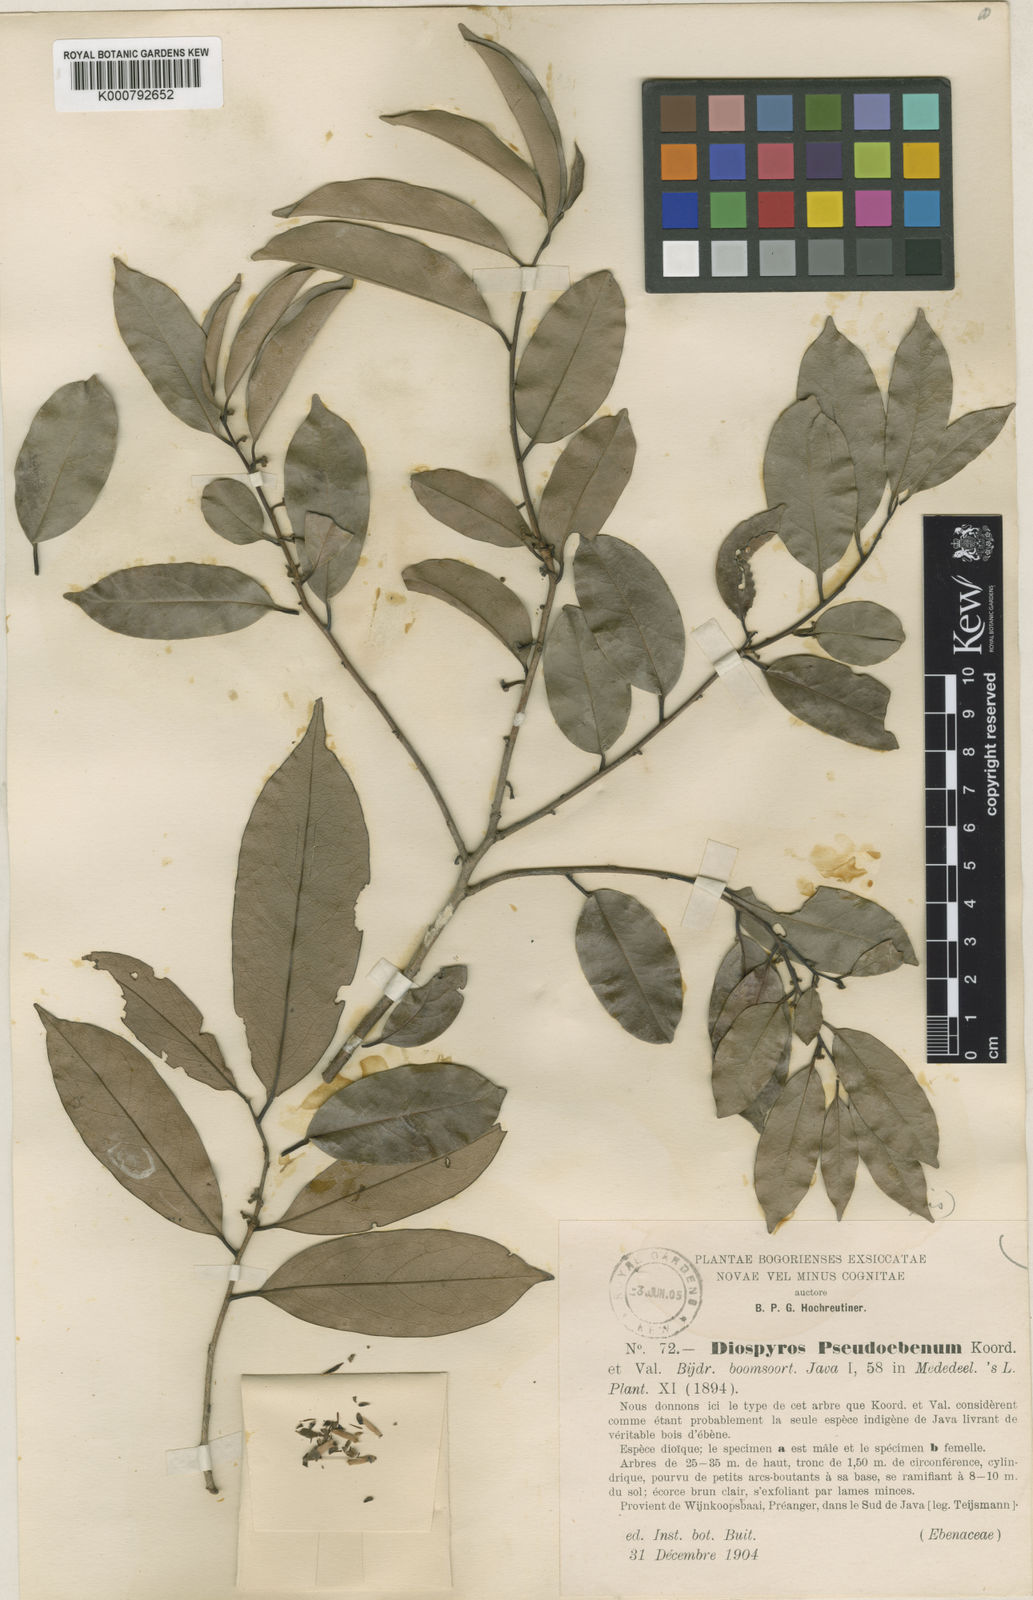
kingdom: Plantae
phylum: Tracheophyta
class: Magnoliopsida
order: Ericales
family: Ebenaceae
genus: Diospyros
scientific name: Diospyros
